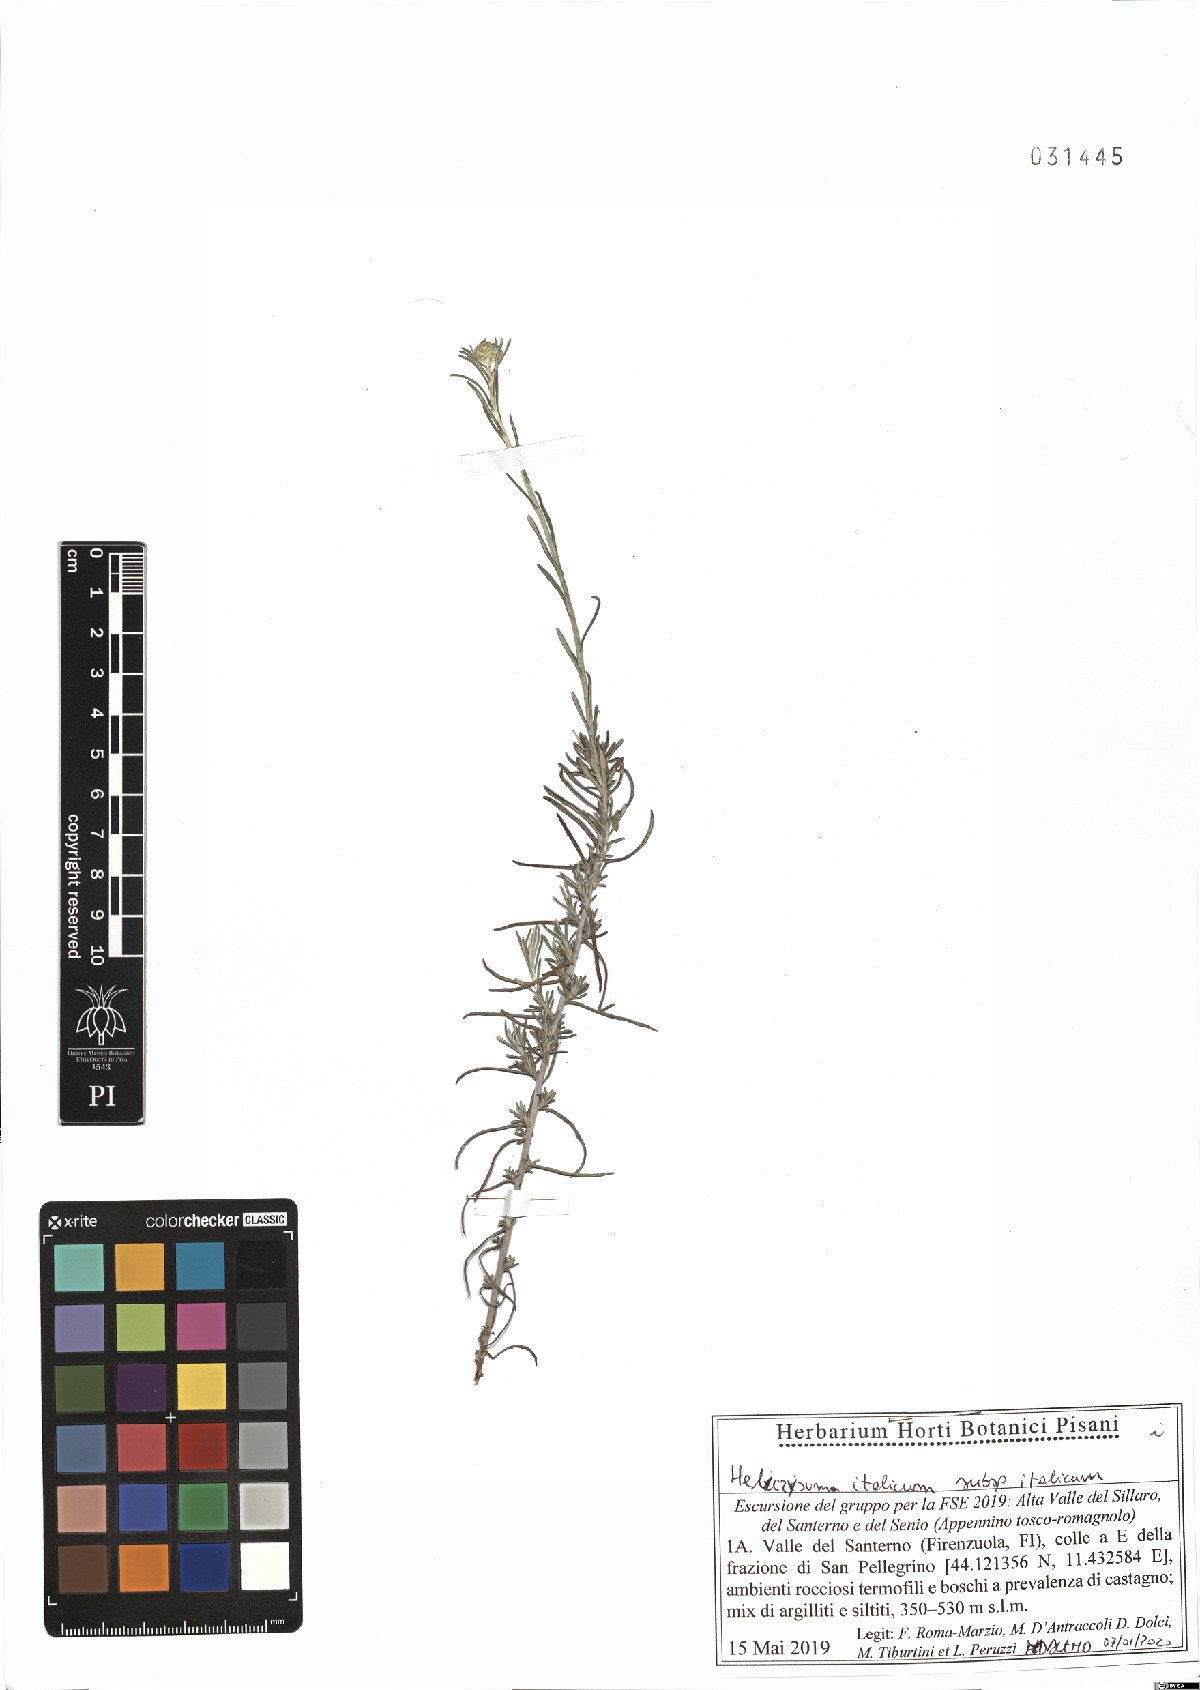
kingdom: Plantae
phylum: Tracheophyta
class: Magnoliopsida
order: Asterales
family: Asteraceae
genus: Helichrysum
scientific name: Helichrysum italicum
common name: Curryplant
